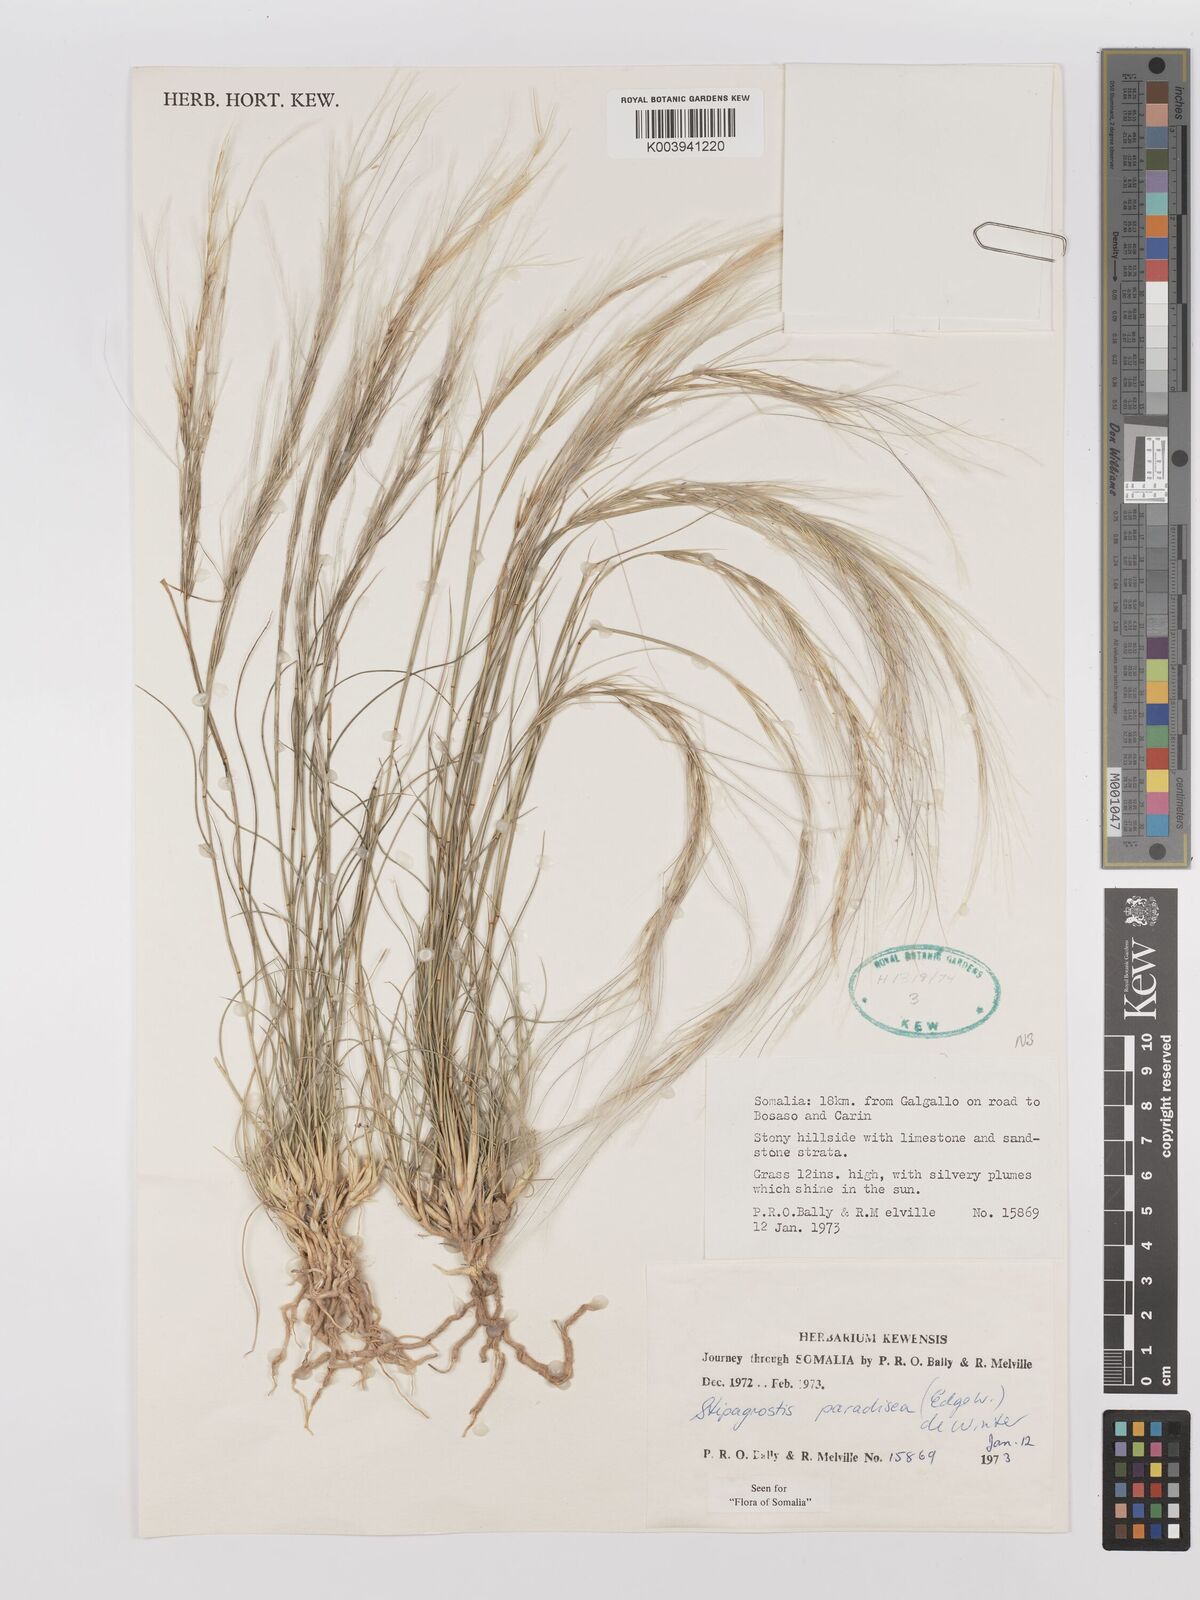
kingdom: Plantae
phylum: Tracheophyta
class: Liliopsida
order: Poales
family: Poaceae
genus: Stipagrostis
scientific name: Stipagrostis paradisea
